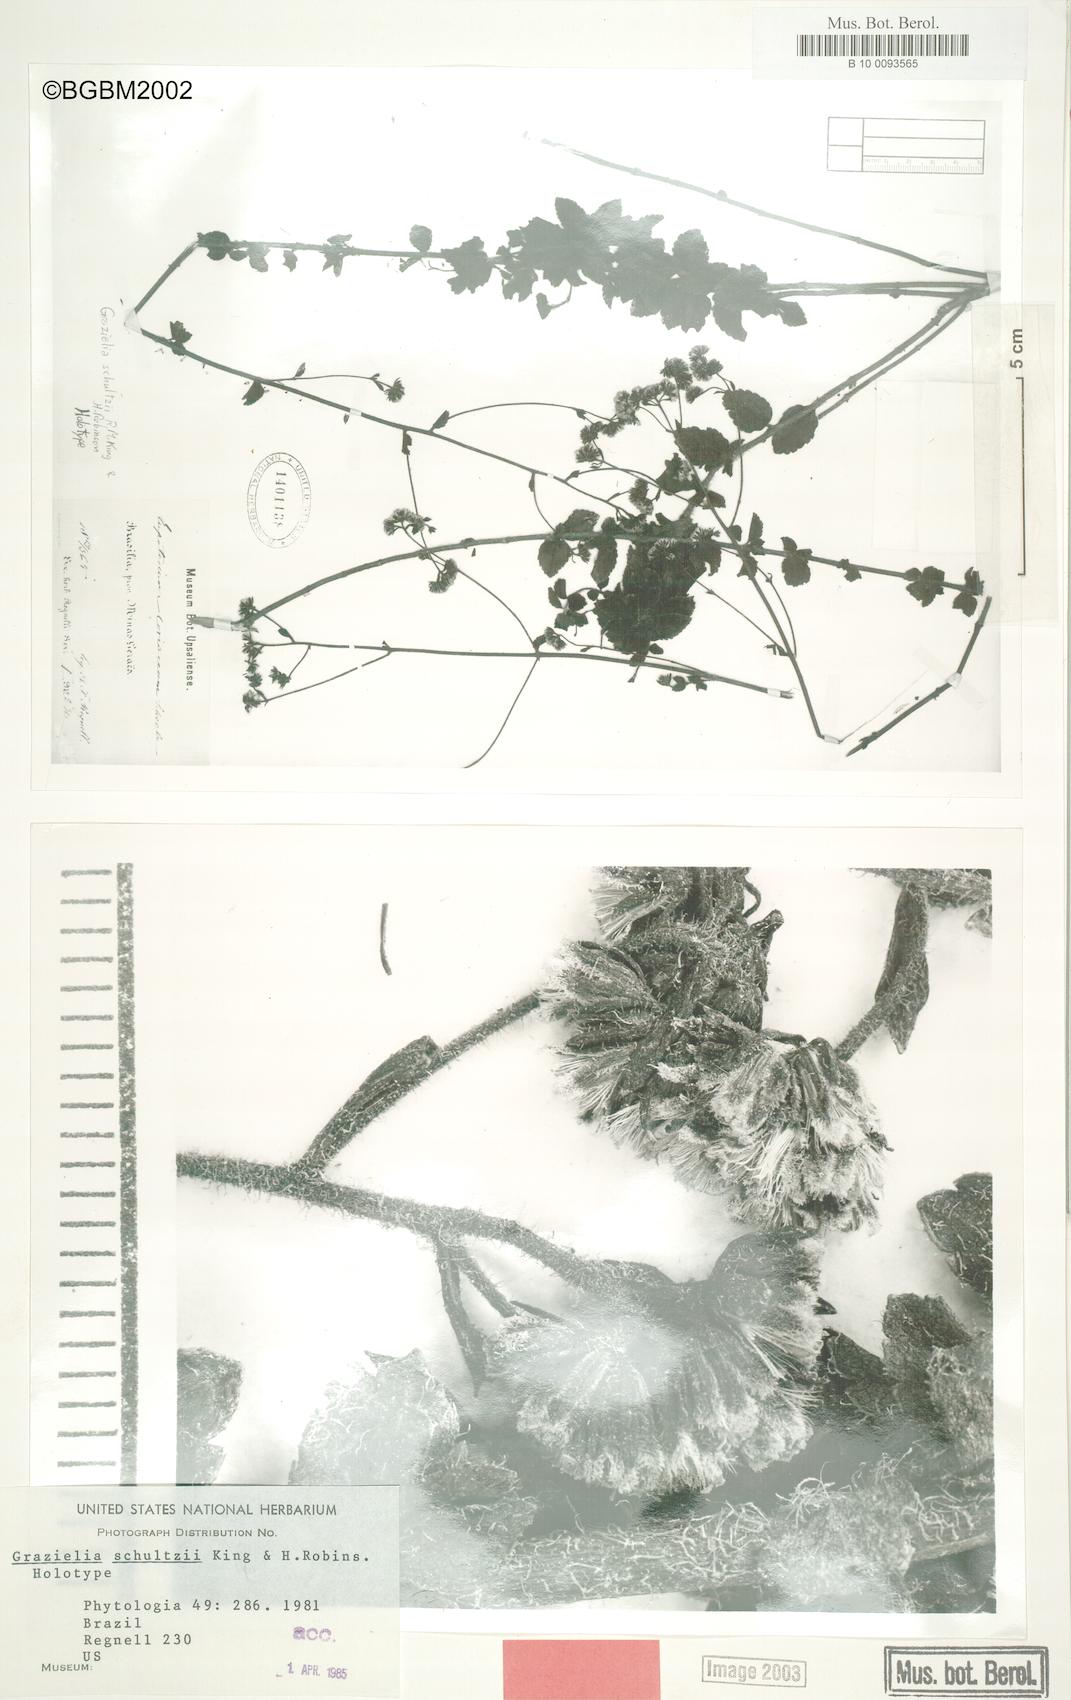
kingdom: Plantae
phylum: Tracheophyta
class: Magnoliopsida
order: Asterales
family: Asteraceae
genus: Grazielia
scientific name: Grazielia schultzii
